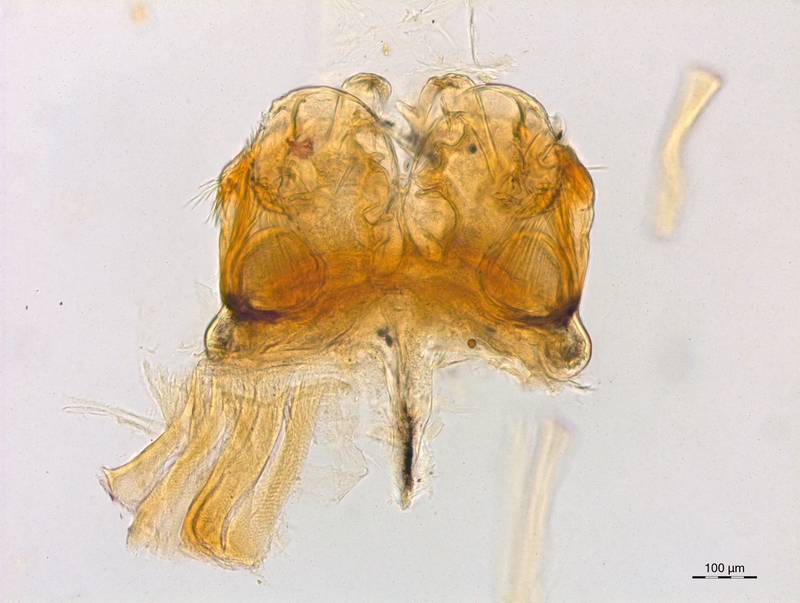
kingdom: Animalia
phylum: Arthropoda
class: Diplopoda
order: Chordeumatida
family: Craspedosomatidae
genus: Craspedosoma
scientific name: Craspedosoma furculigerum
